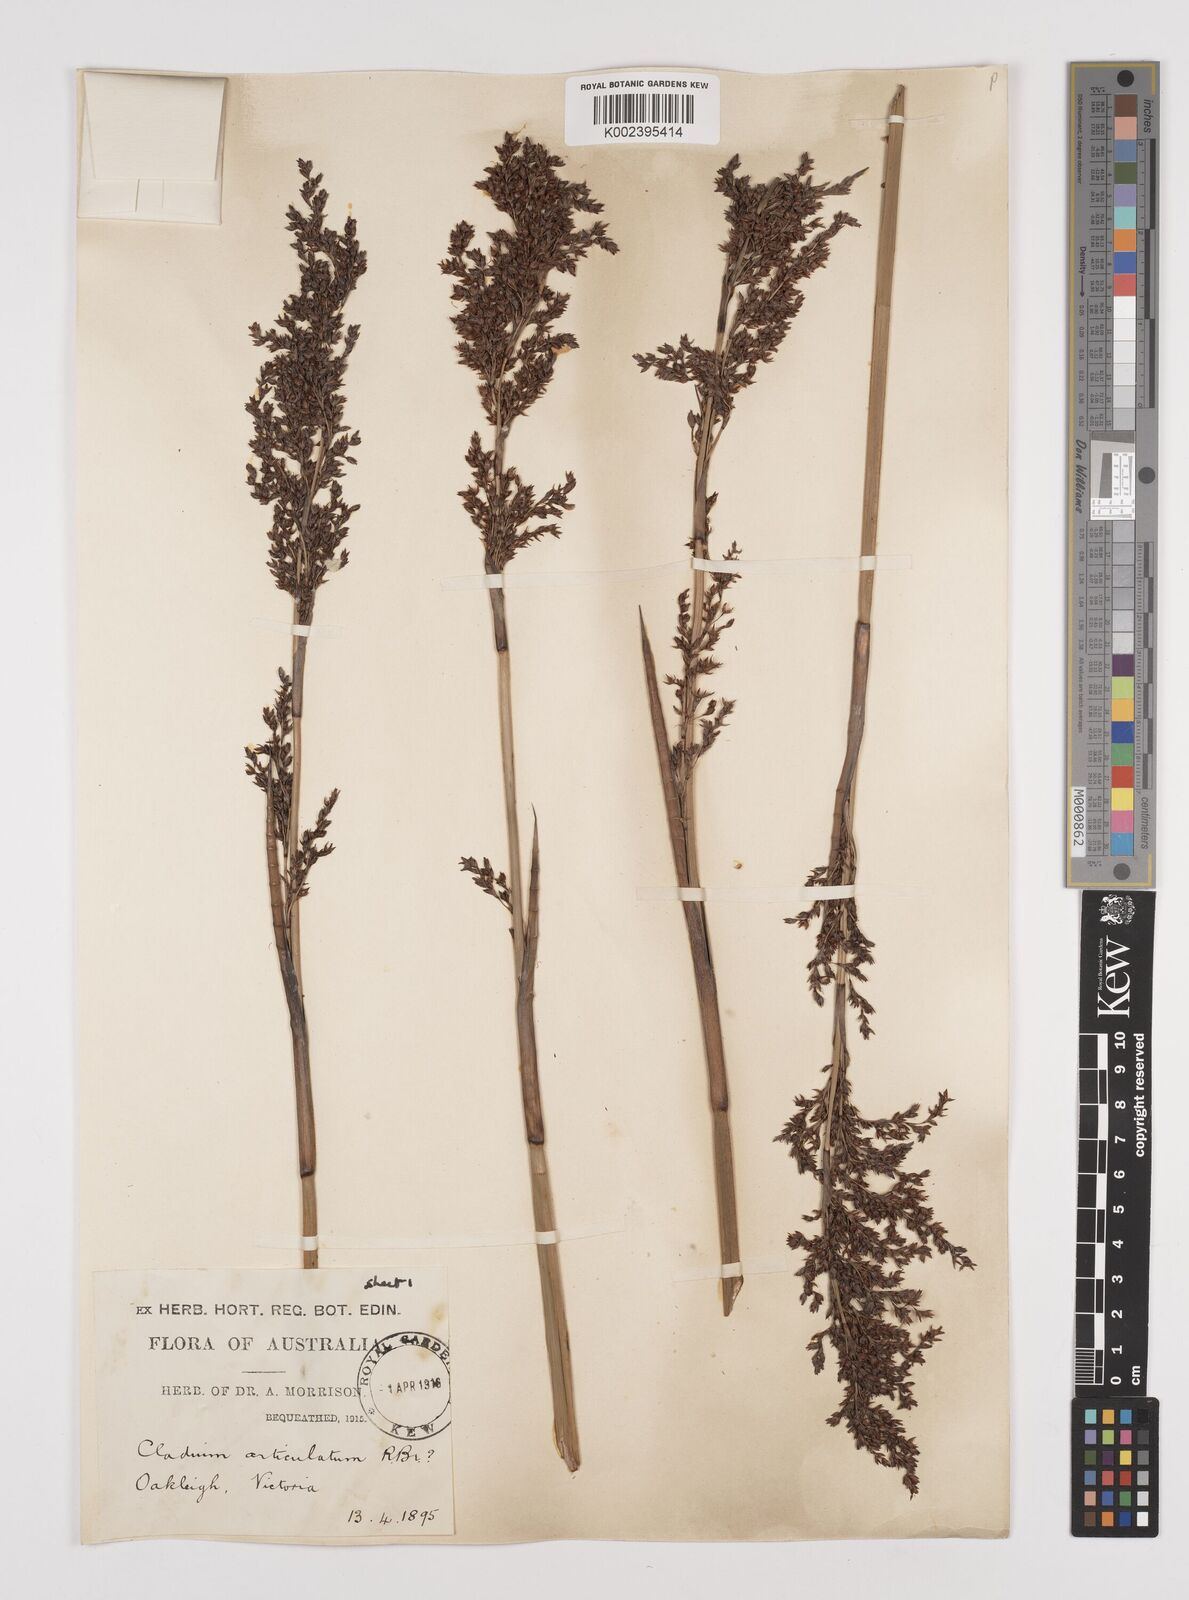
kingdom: Plantae
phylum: Tracheophyta
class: Liliopsida
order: Poales
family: Cyperaceae
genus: Machaerina
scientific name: Machaerina articulata
